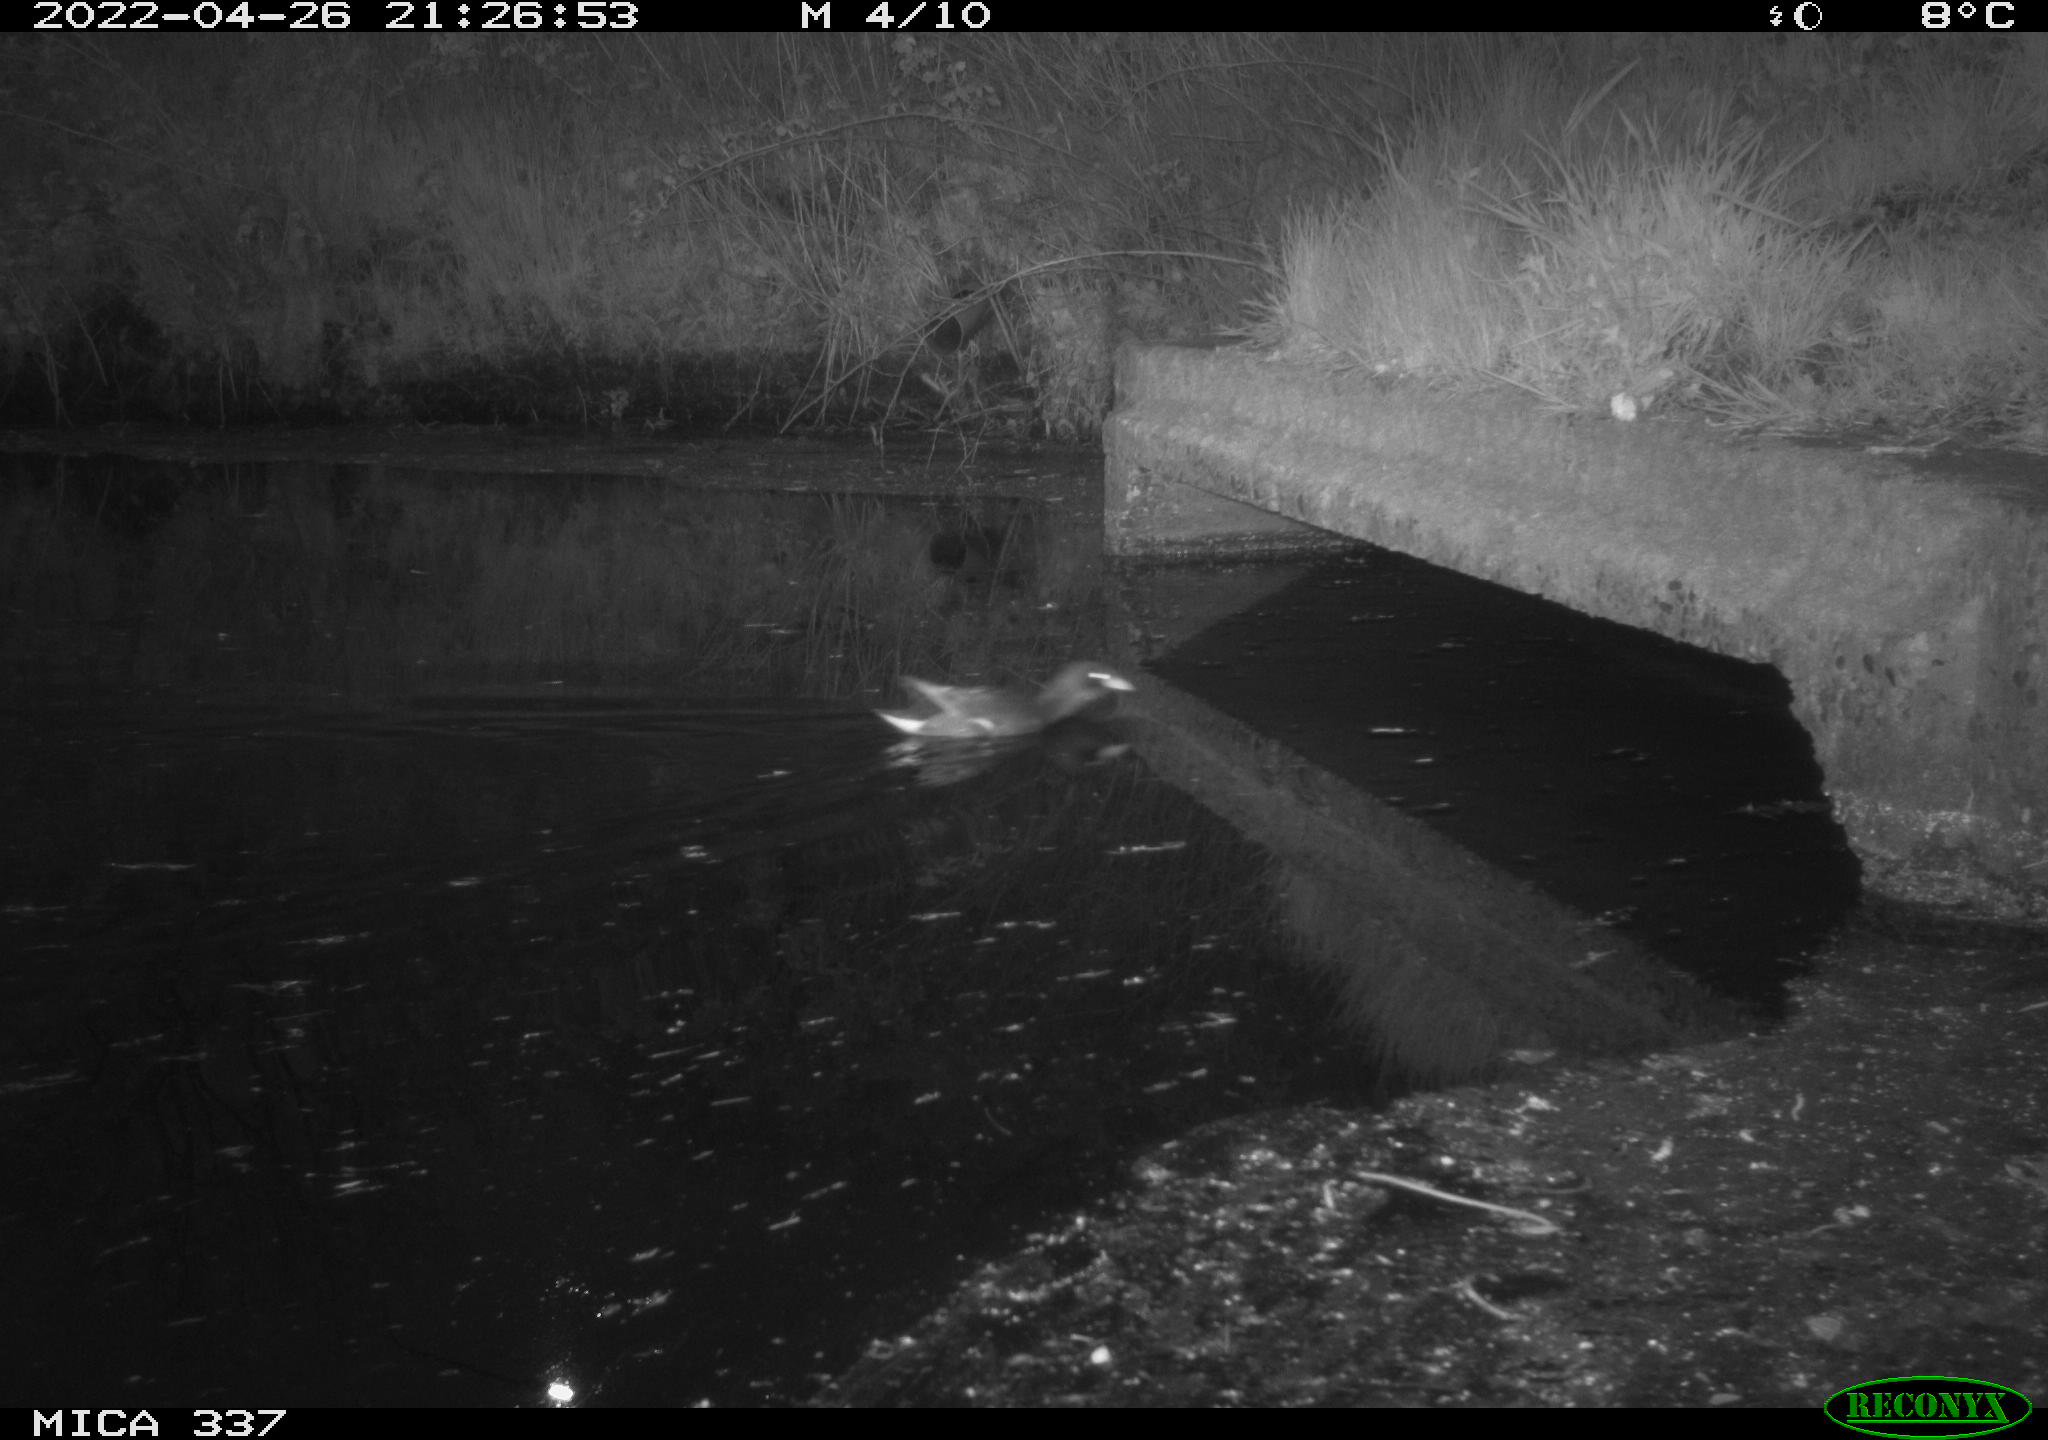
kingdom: Animalia
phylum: Chordata
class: Aves
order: Gruiformes
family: Rallidae
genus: Gallinula
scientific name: Gallinula chloropus
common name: Common moorhen
